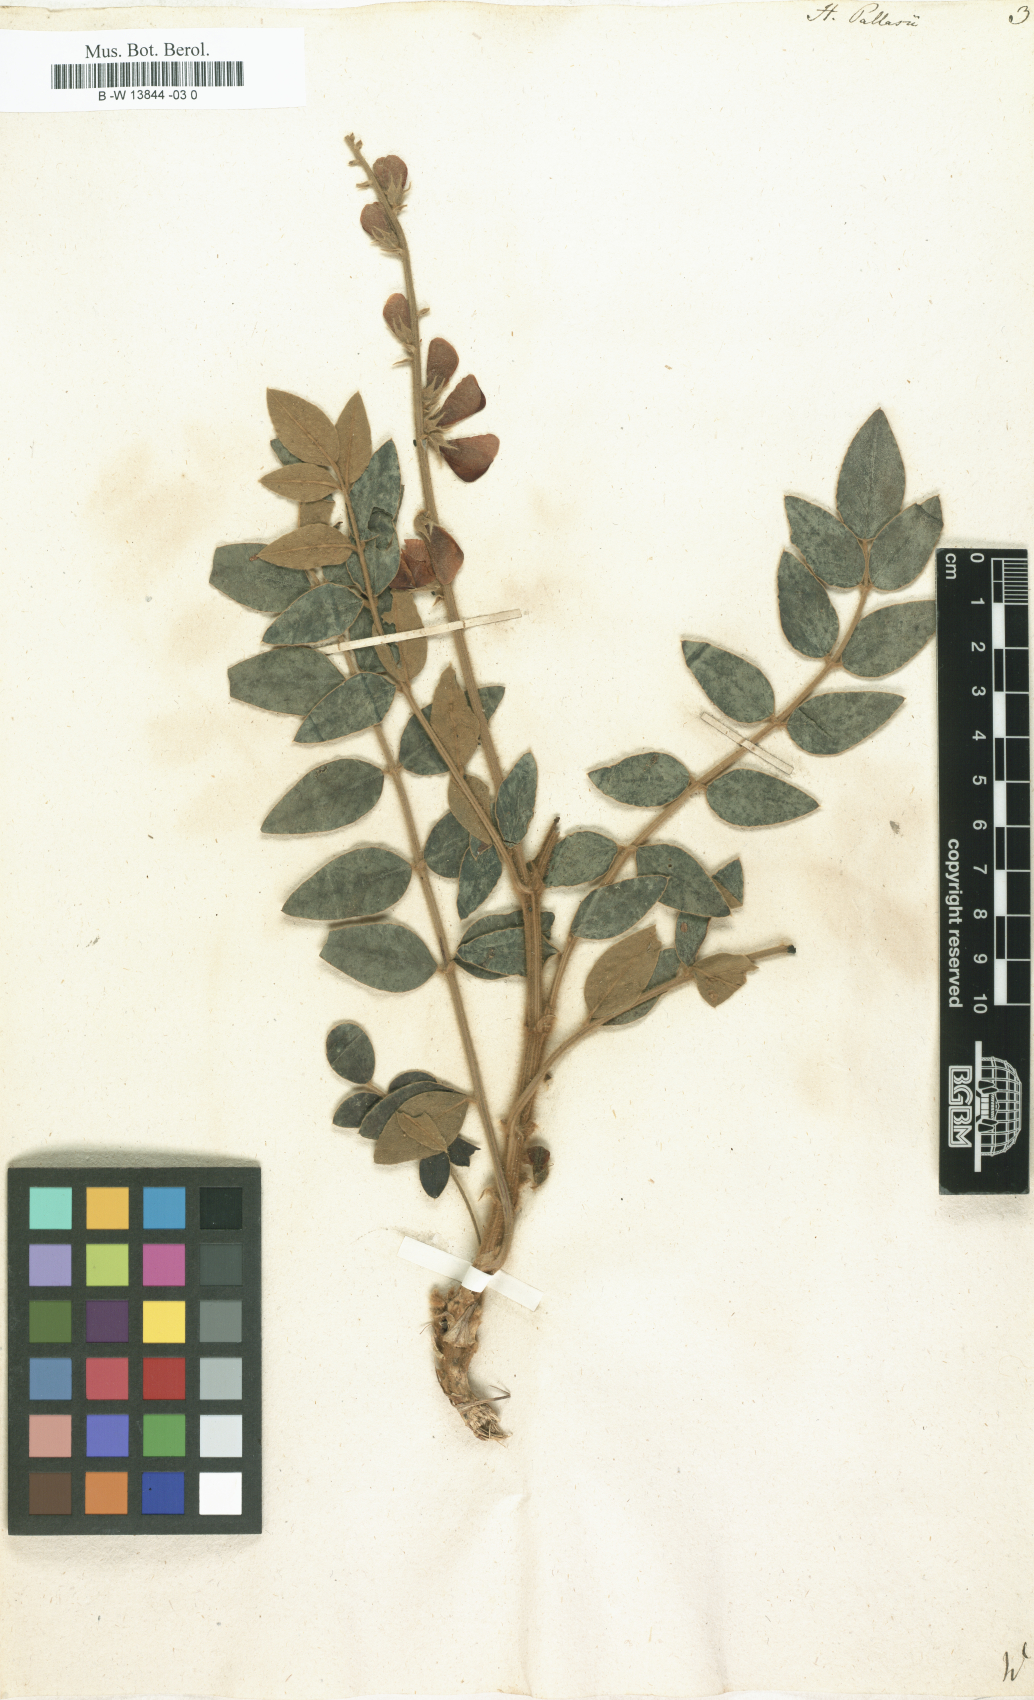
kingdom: Plantae
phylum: Tracheophyta
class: Magnoliopsida
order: Fabales
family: Fabaceae
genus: Onobrychis
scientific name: Onobrychis pallasii
